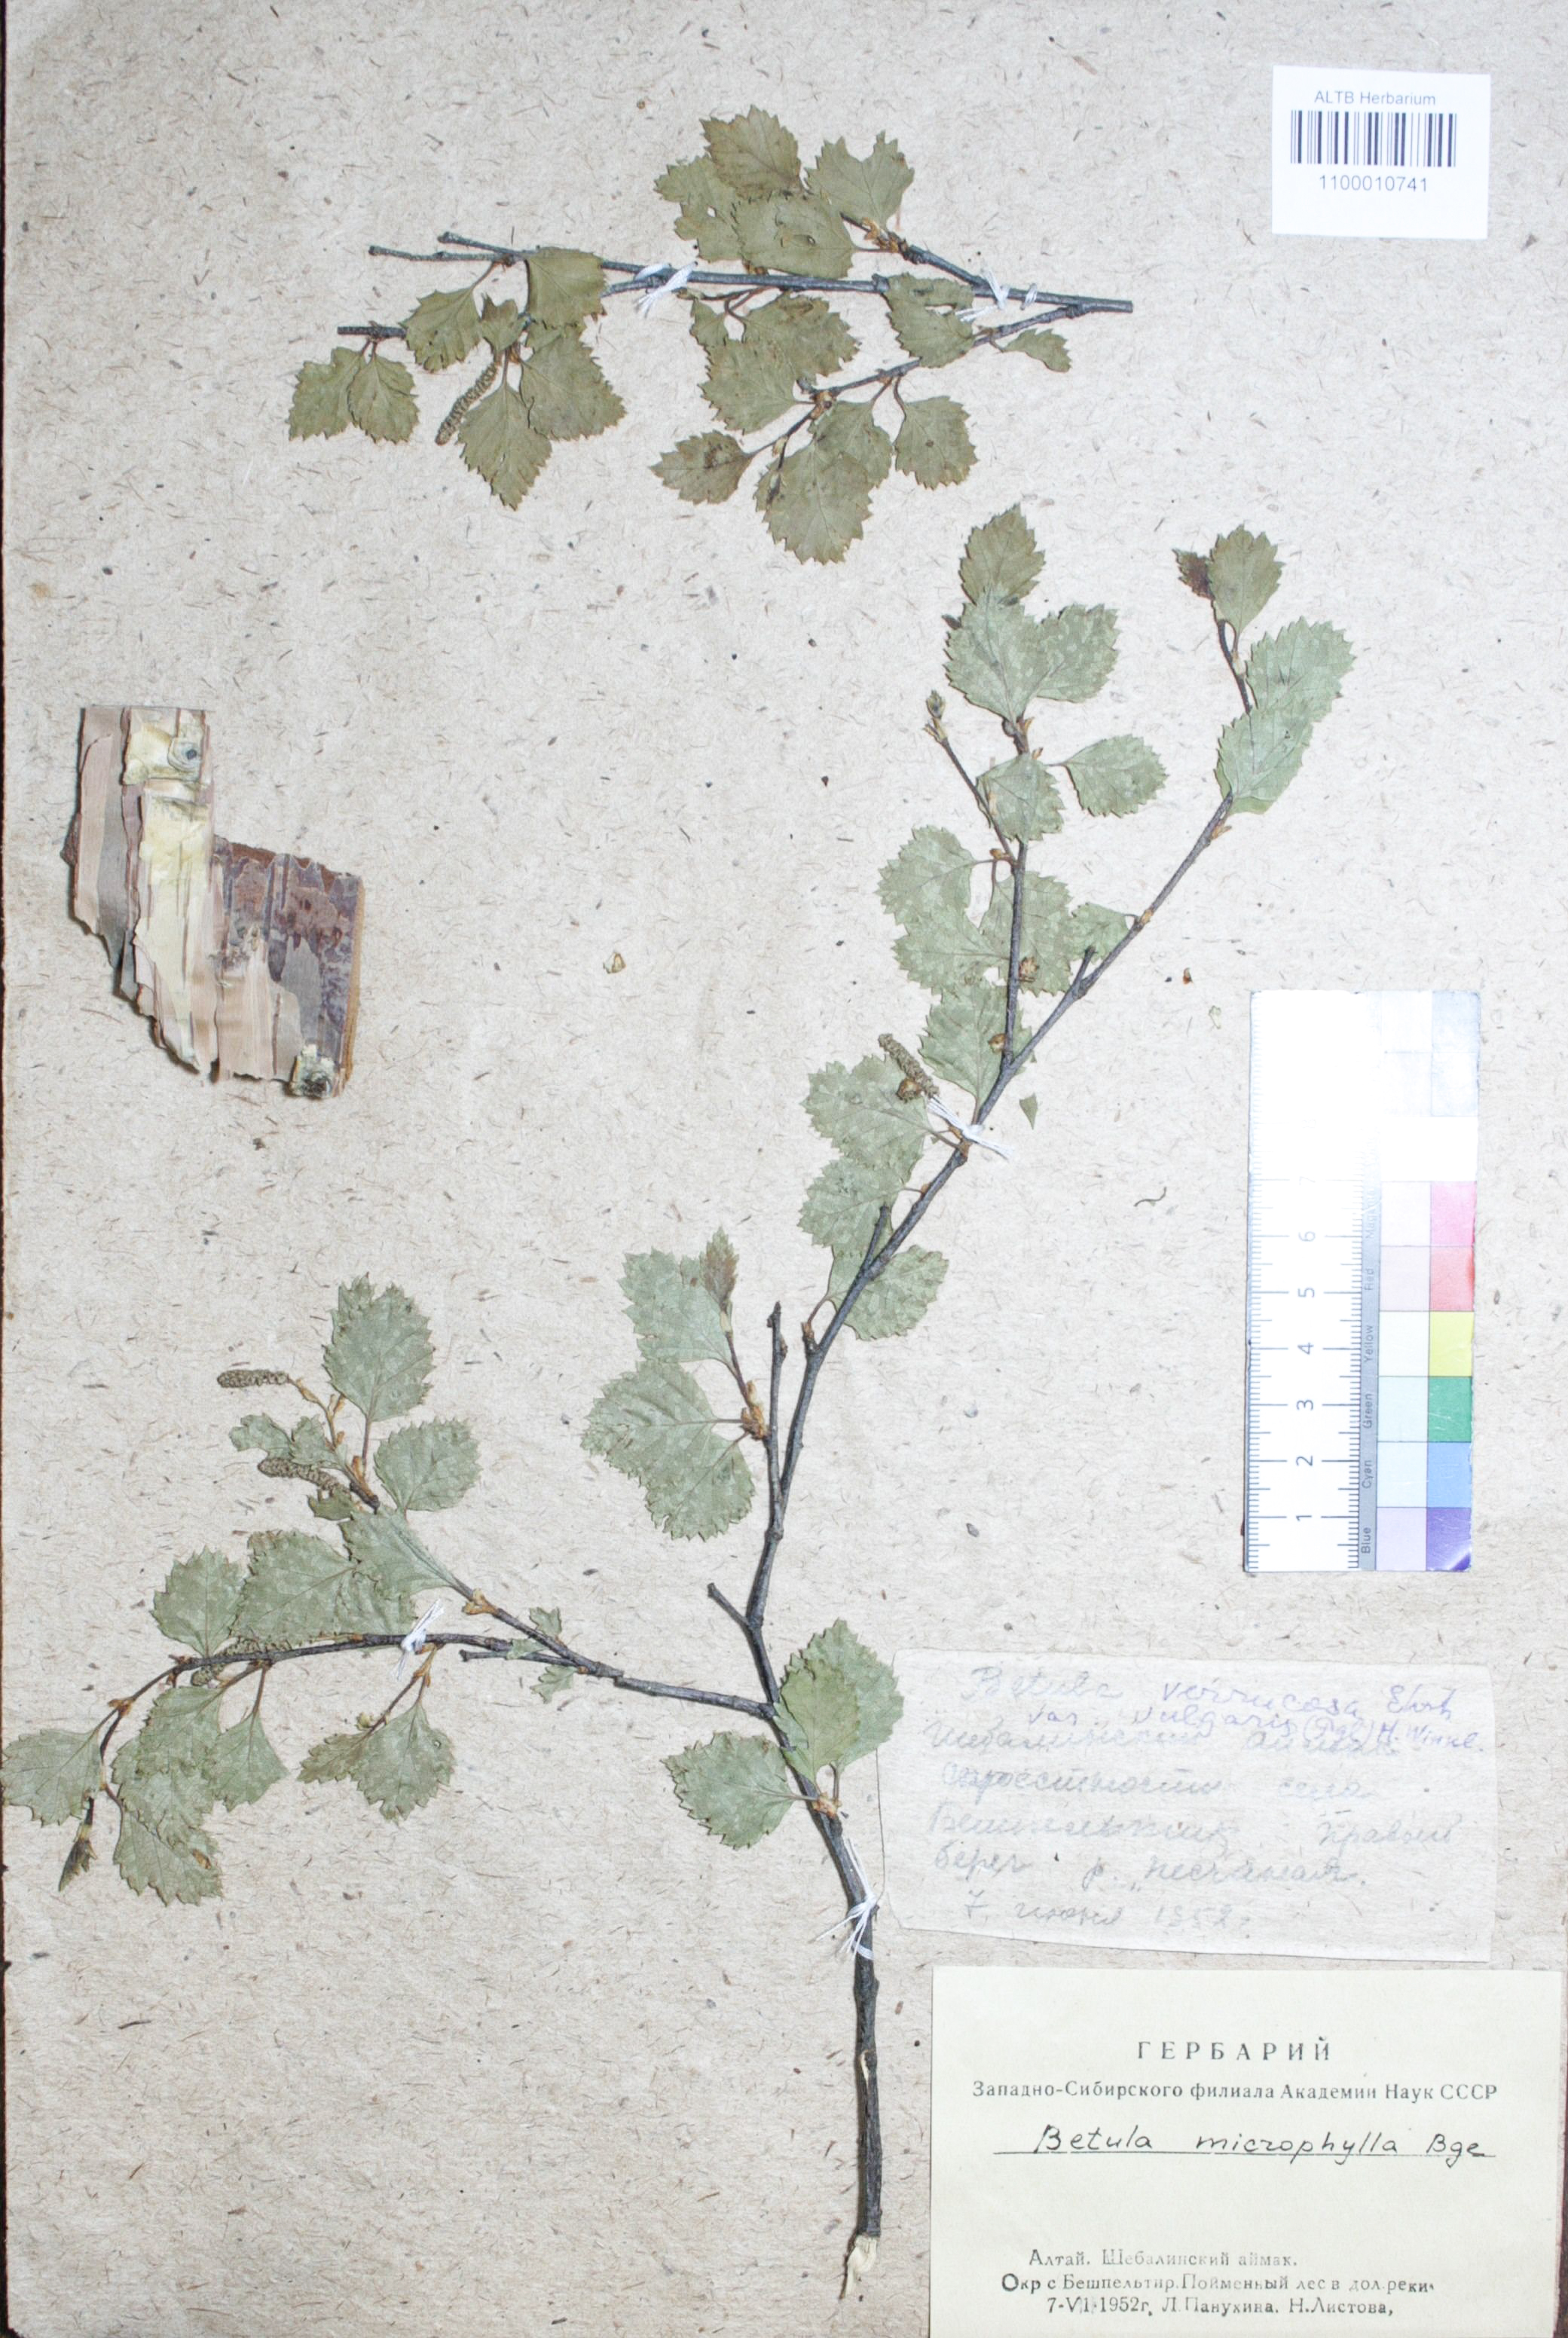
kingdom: Plantae
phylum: Tracheophyta
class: Magnoliopsida
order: Fagales
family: Betulaceae
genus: Betula
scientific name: Betula microphylla
